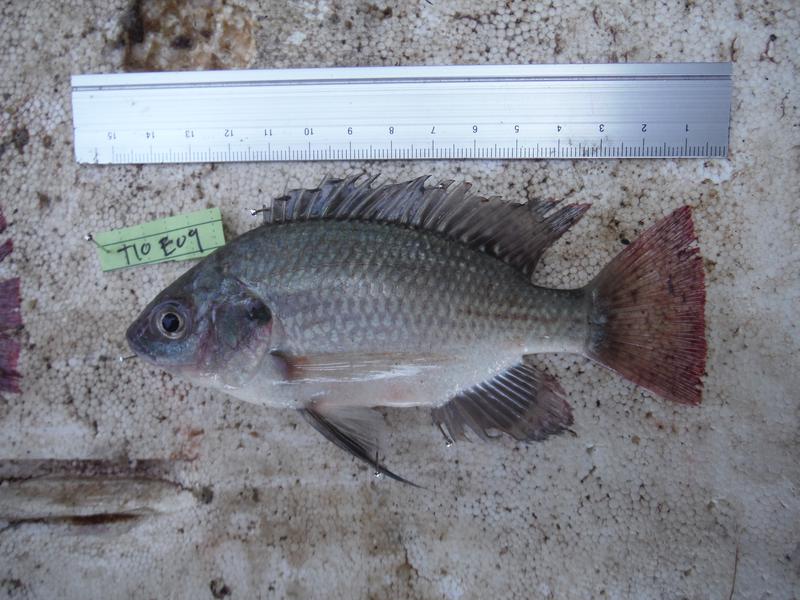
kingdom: Animalia
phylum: Chordata
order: Perciformes
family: Cichlidae
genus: Oreochromis
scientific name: Oreochromis esculentus
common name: Carp
